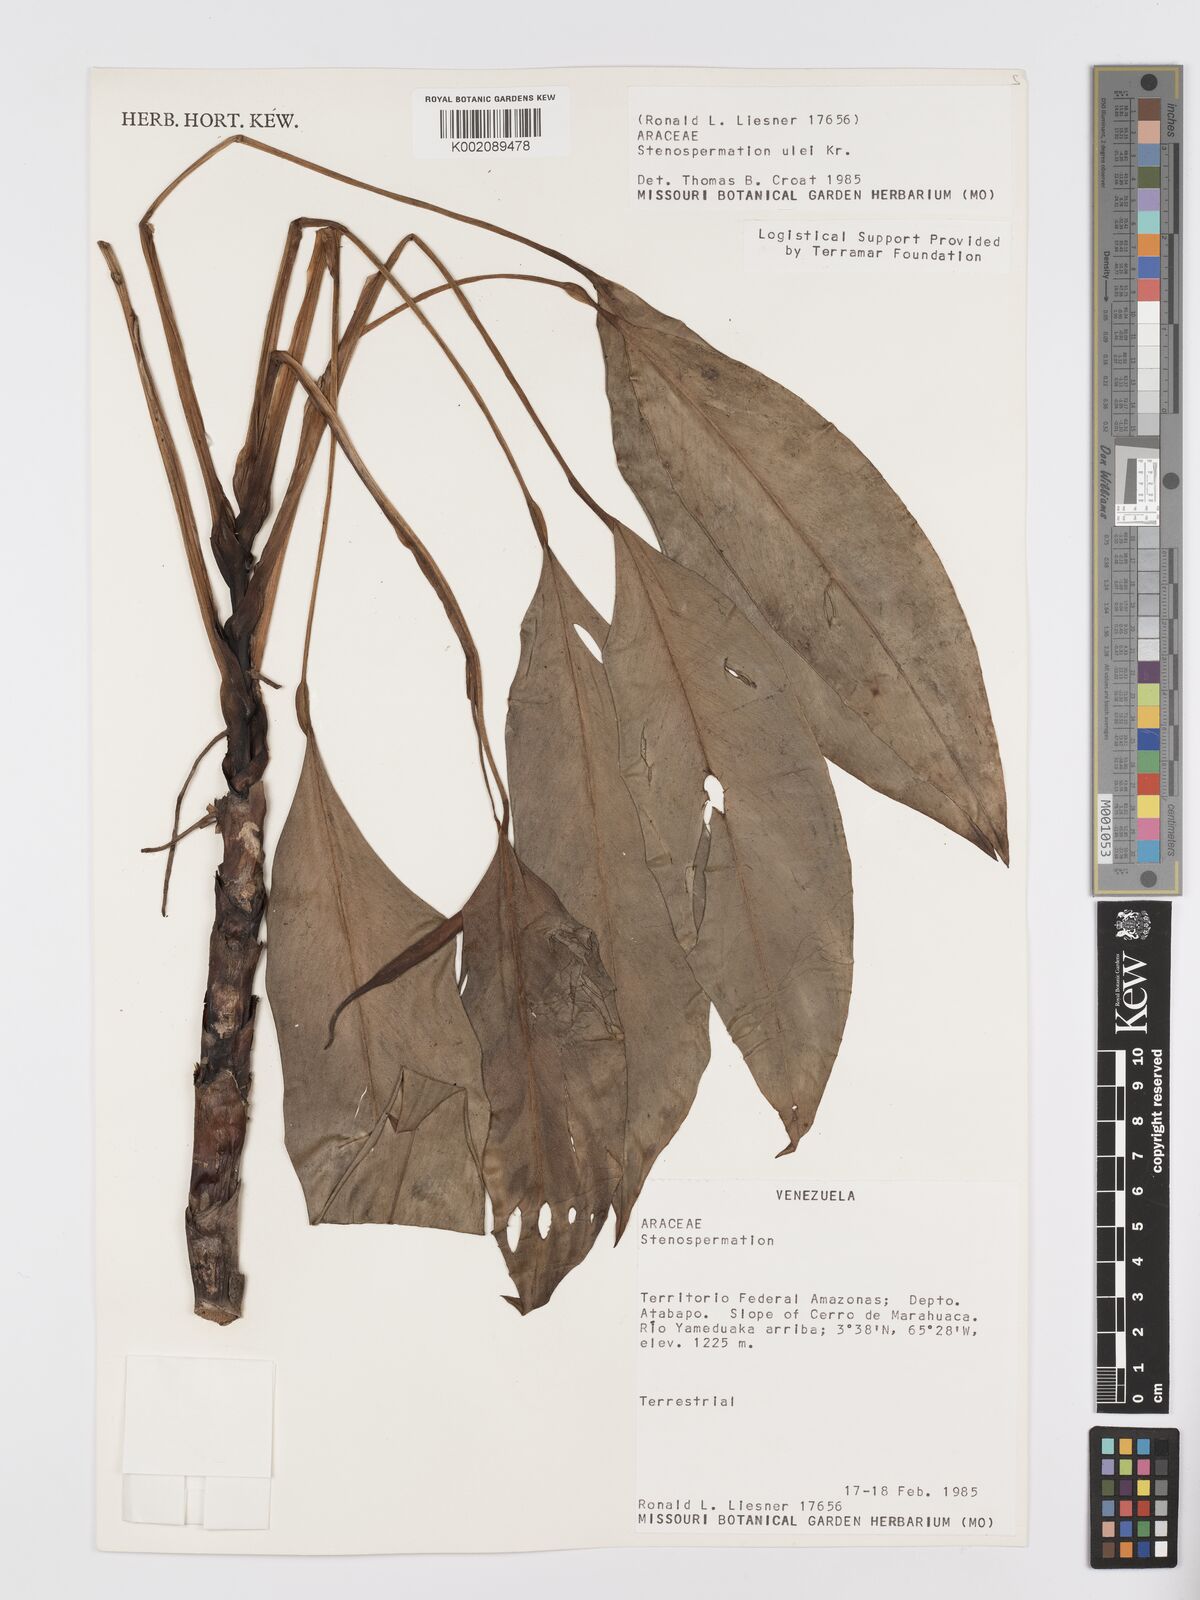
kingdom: Plantae
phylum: Tracheophyta
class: Liliopsida
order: Alismatales
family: Araceae
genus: Stenospermation
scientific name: Stenospermation ulei
